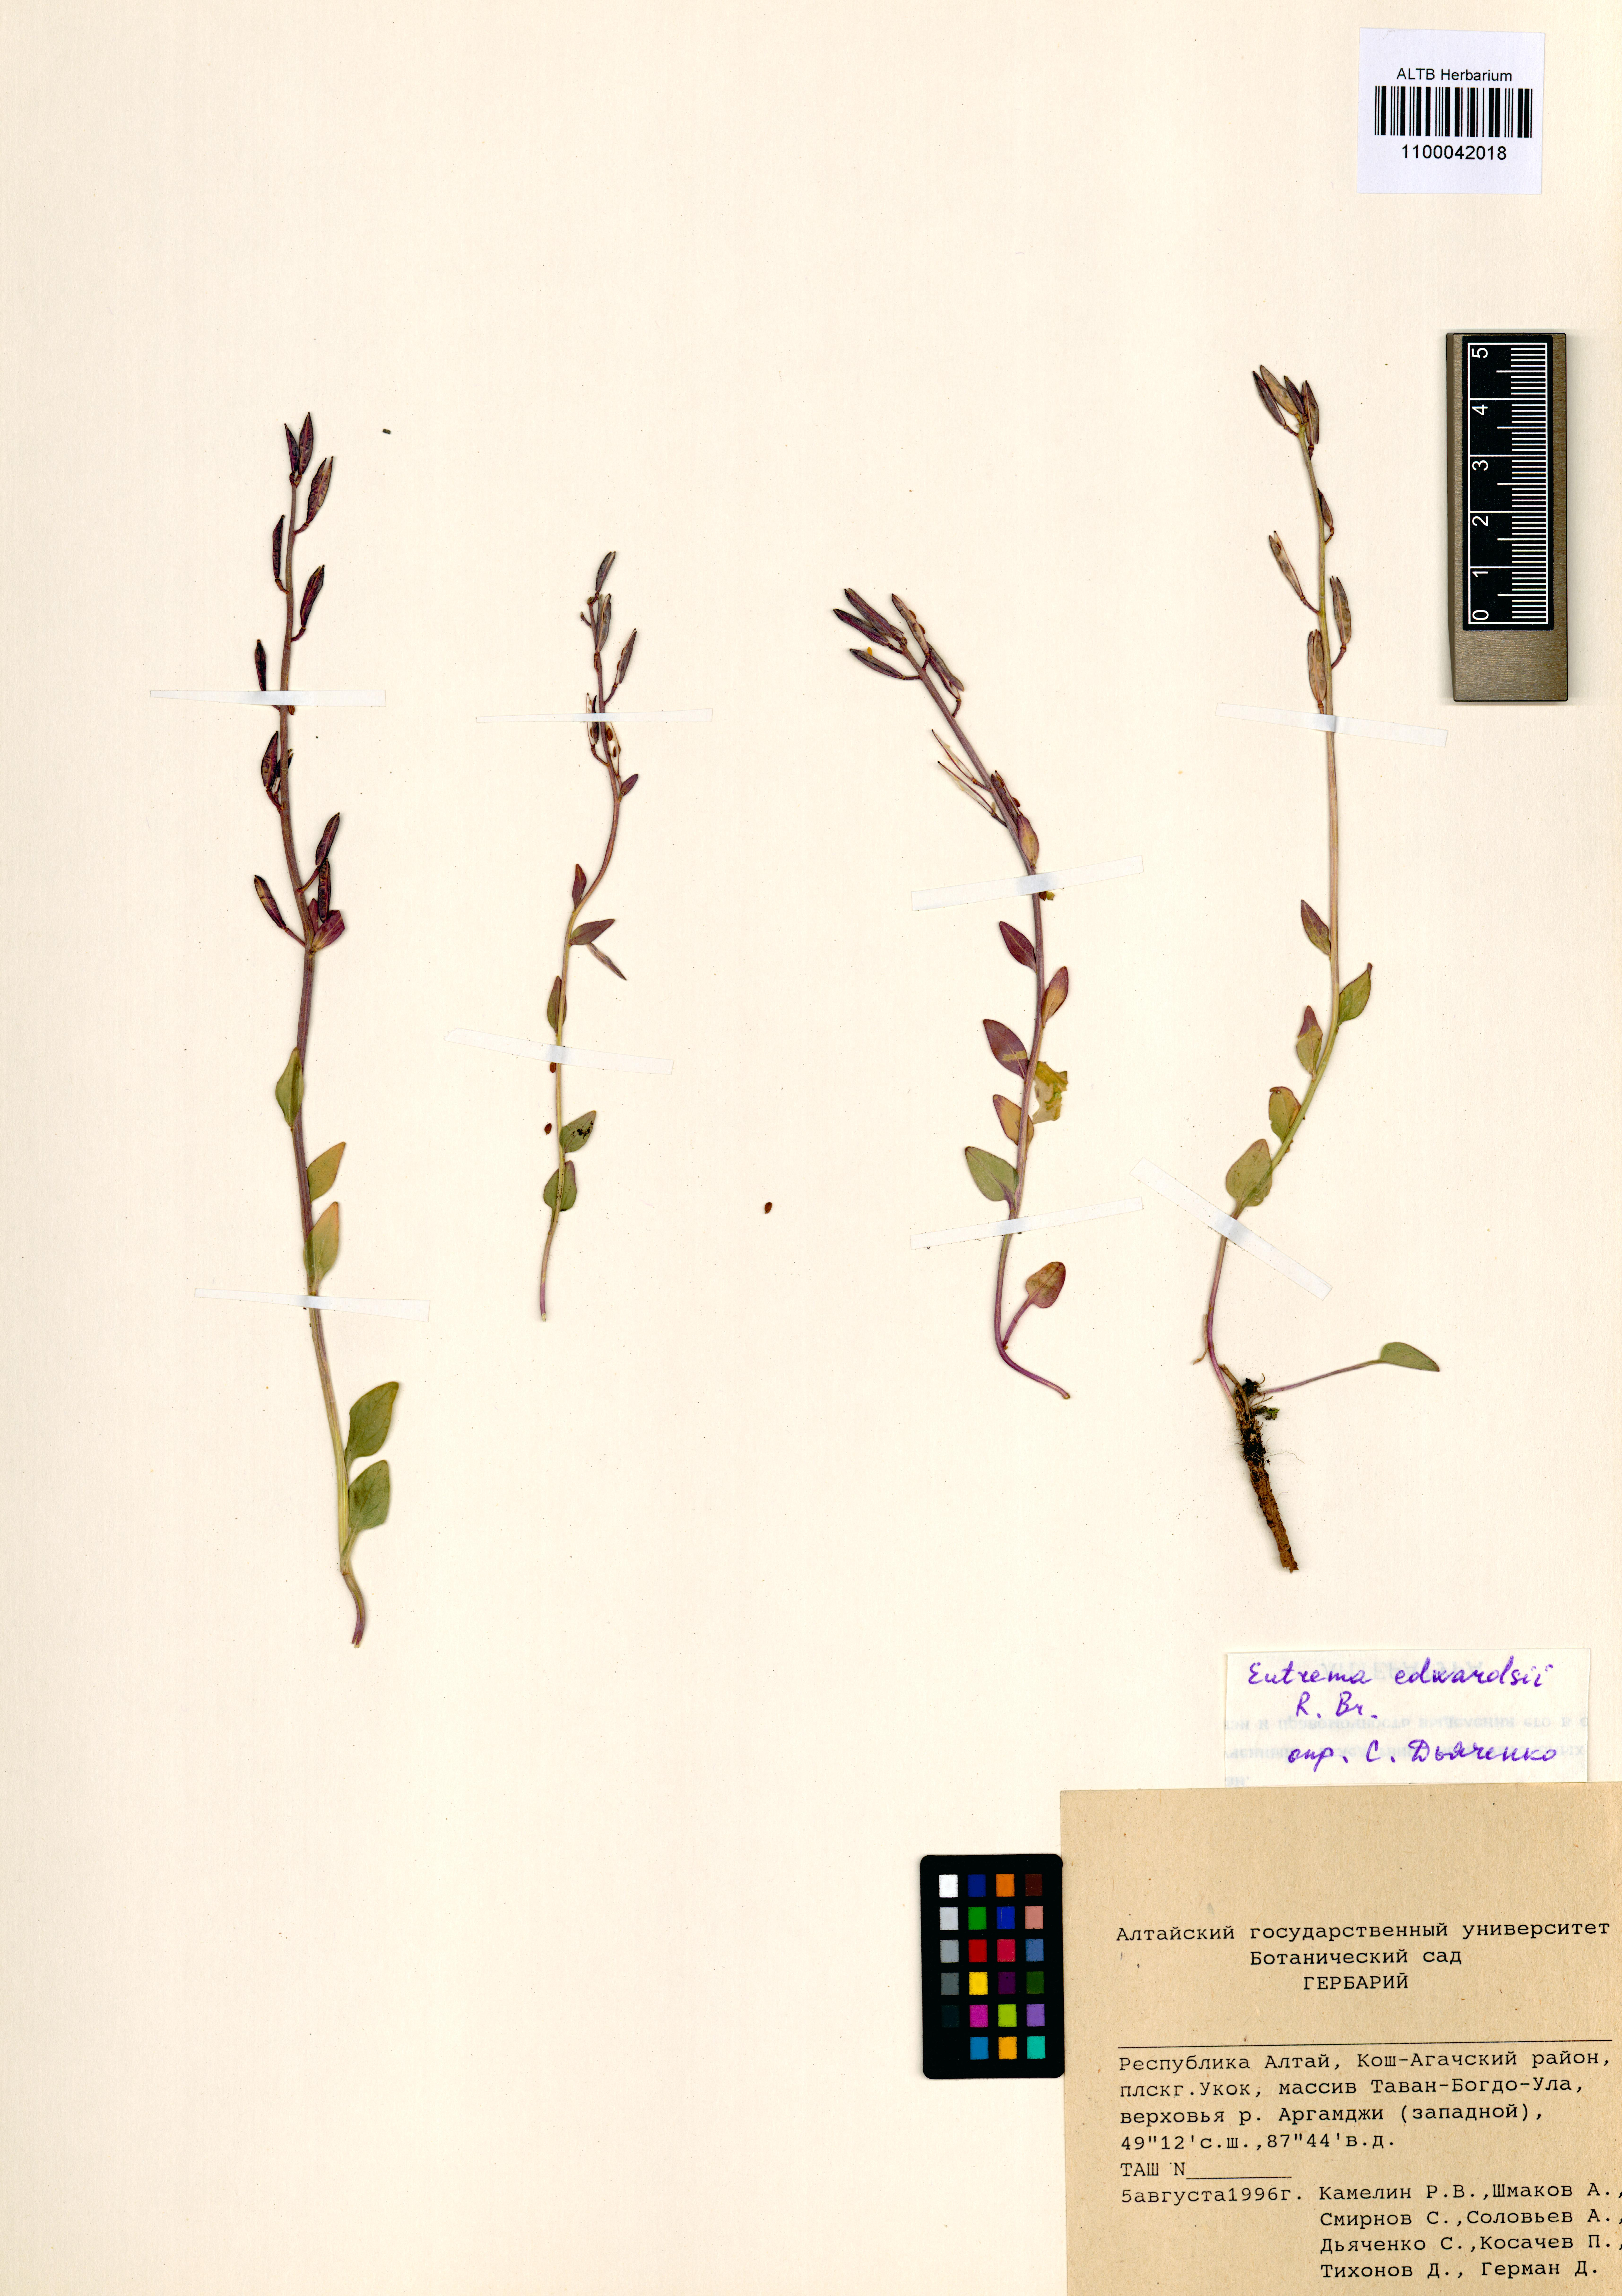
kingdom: Plantae
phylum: Tracheophyta
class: Magnoliopsida
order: Brassicales
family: Brassicaceae
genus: Eutrema
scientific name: Eutrema edwardsii
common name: Penland alpine fen mustard
